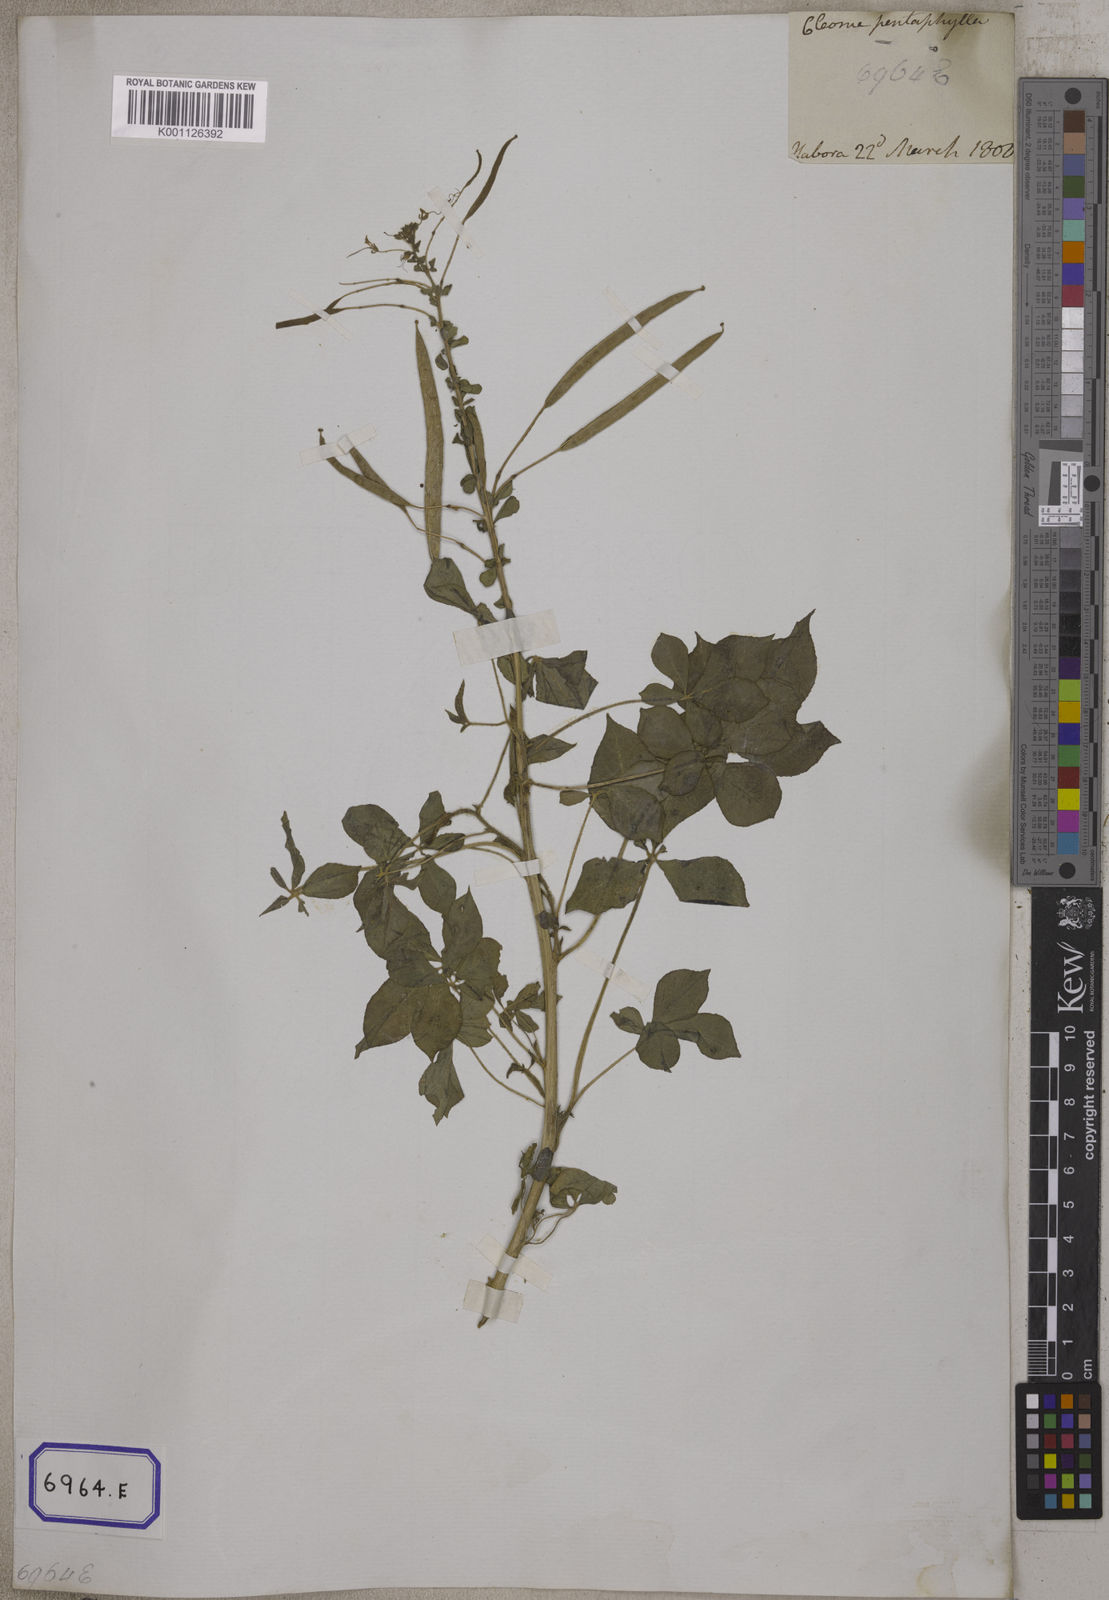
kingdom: Plantae
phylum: Tracheophyta
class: Magnoliopsida
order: Brassicales
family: Cleomaceae
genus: Gynandropsis
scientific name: Gynandropsis gynandra
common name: Spiderwisp
